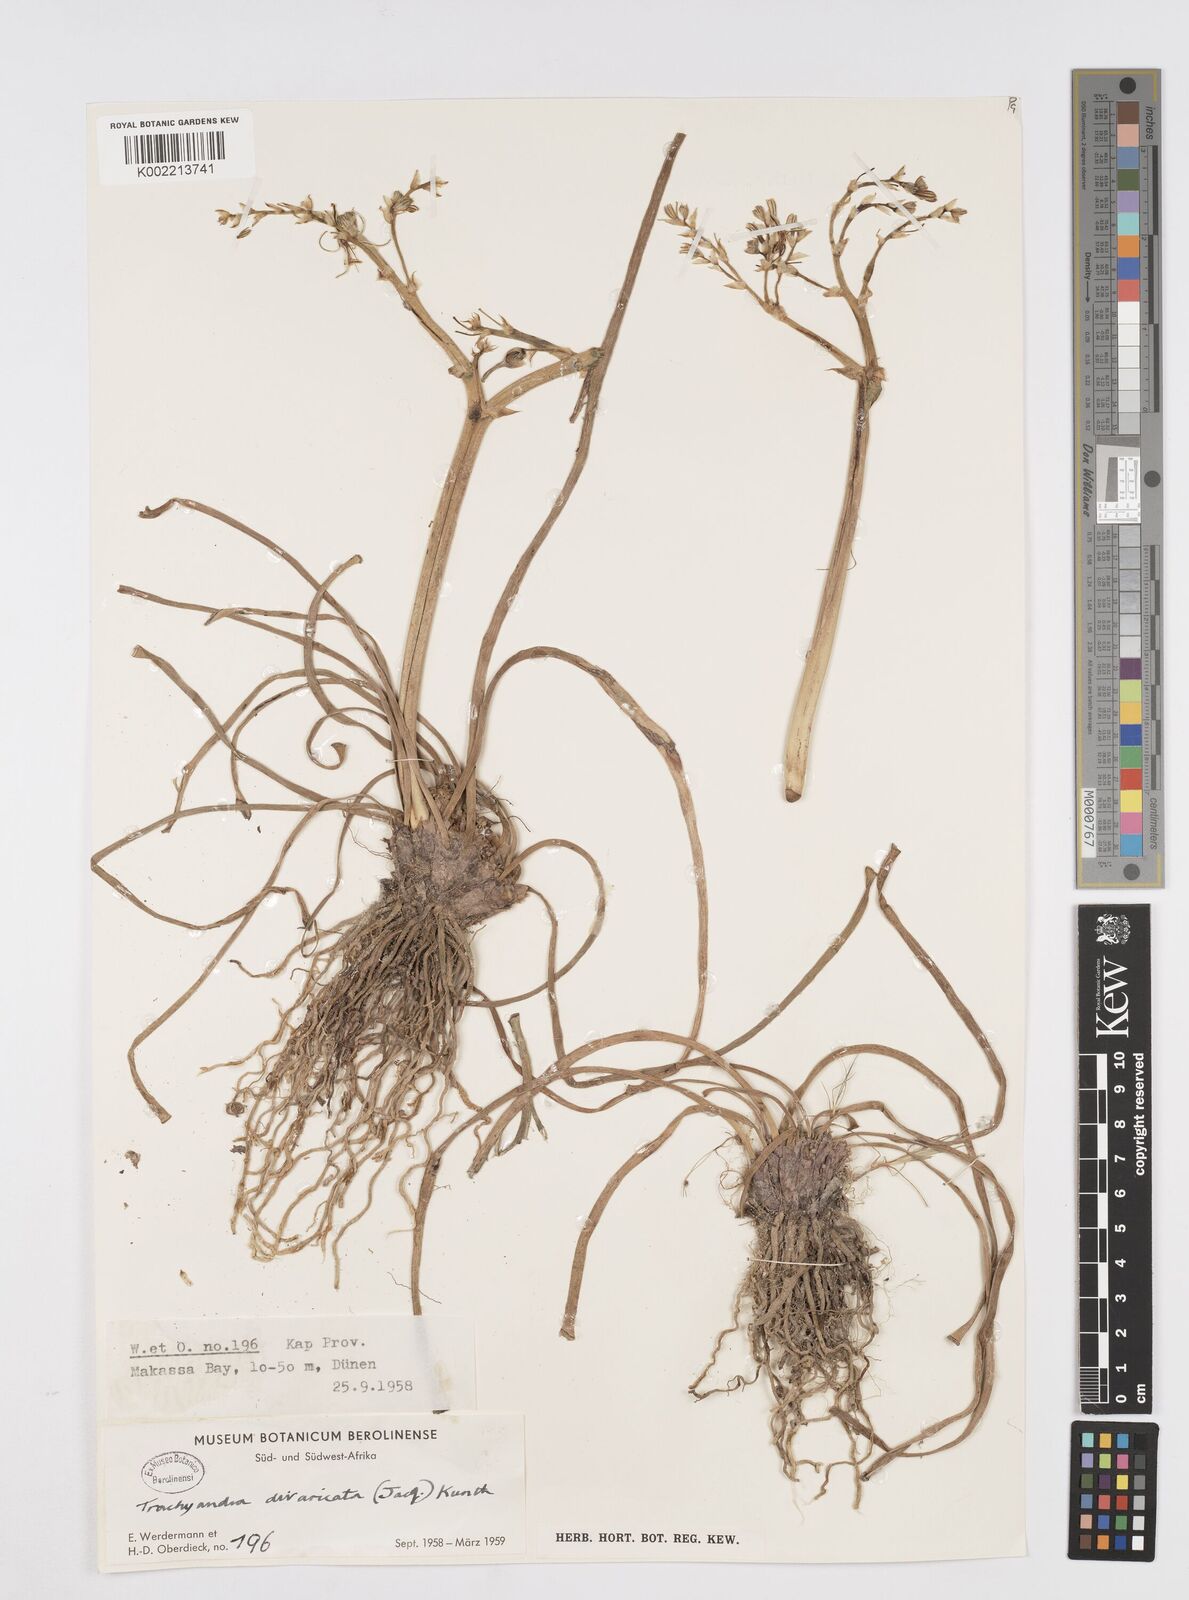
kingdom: Plantae
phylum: Tracheophyta
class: Liliopsida
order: Asparagales
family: Asphodelaceae
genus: Trachyandra
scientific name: Trachyandra divaricata
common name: Dune onionweed
